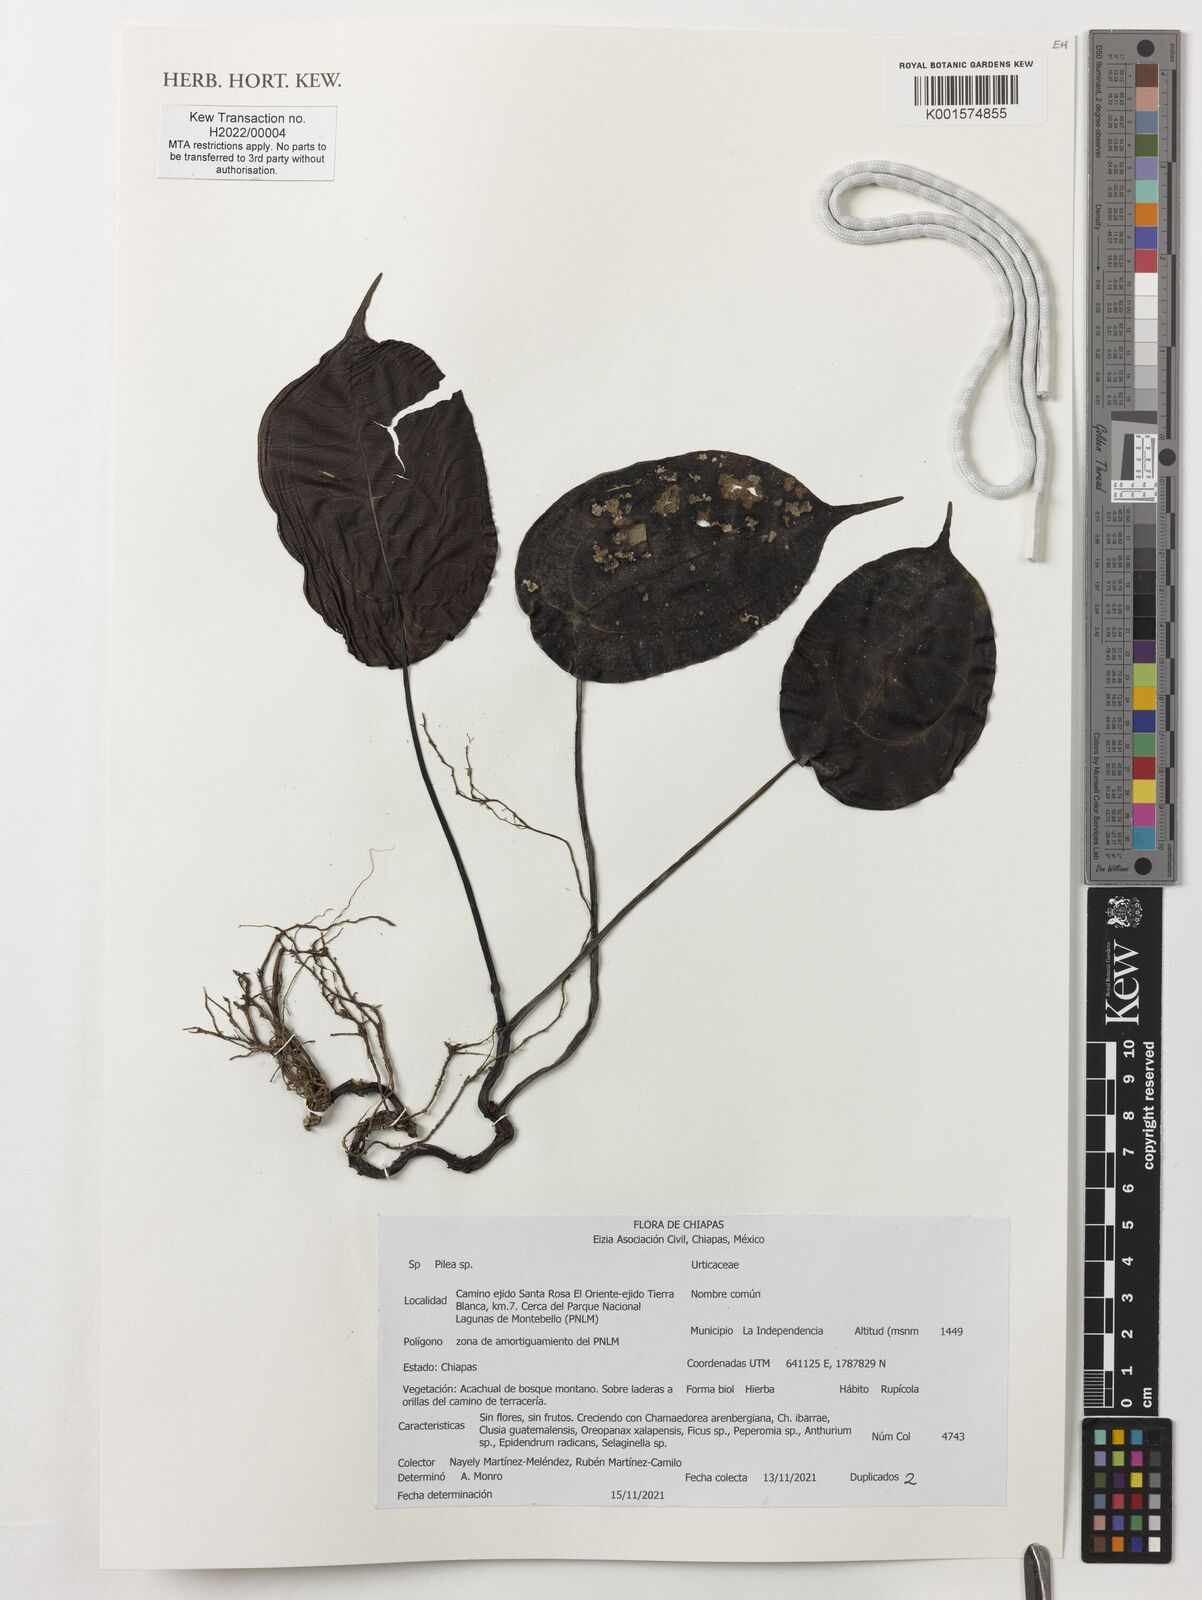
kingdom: Plantae
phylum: Tracheophyta
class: Magnoliopsida
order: Rosales
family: Urticaceae
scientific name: Urticaceae
